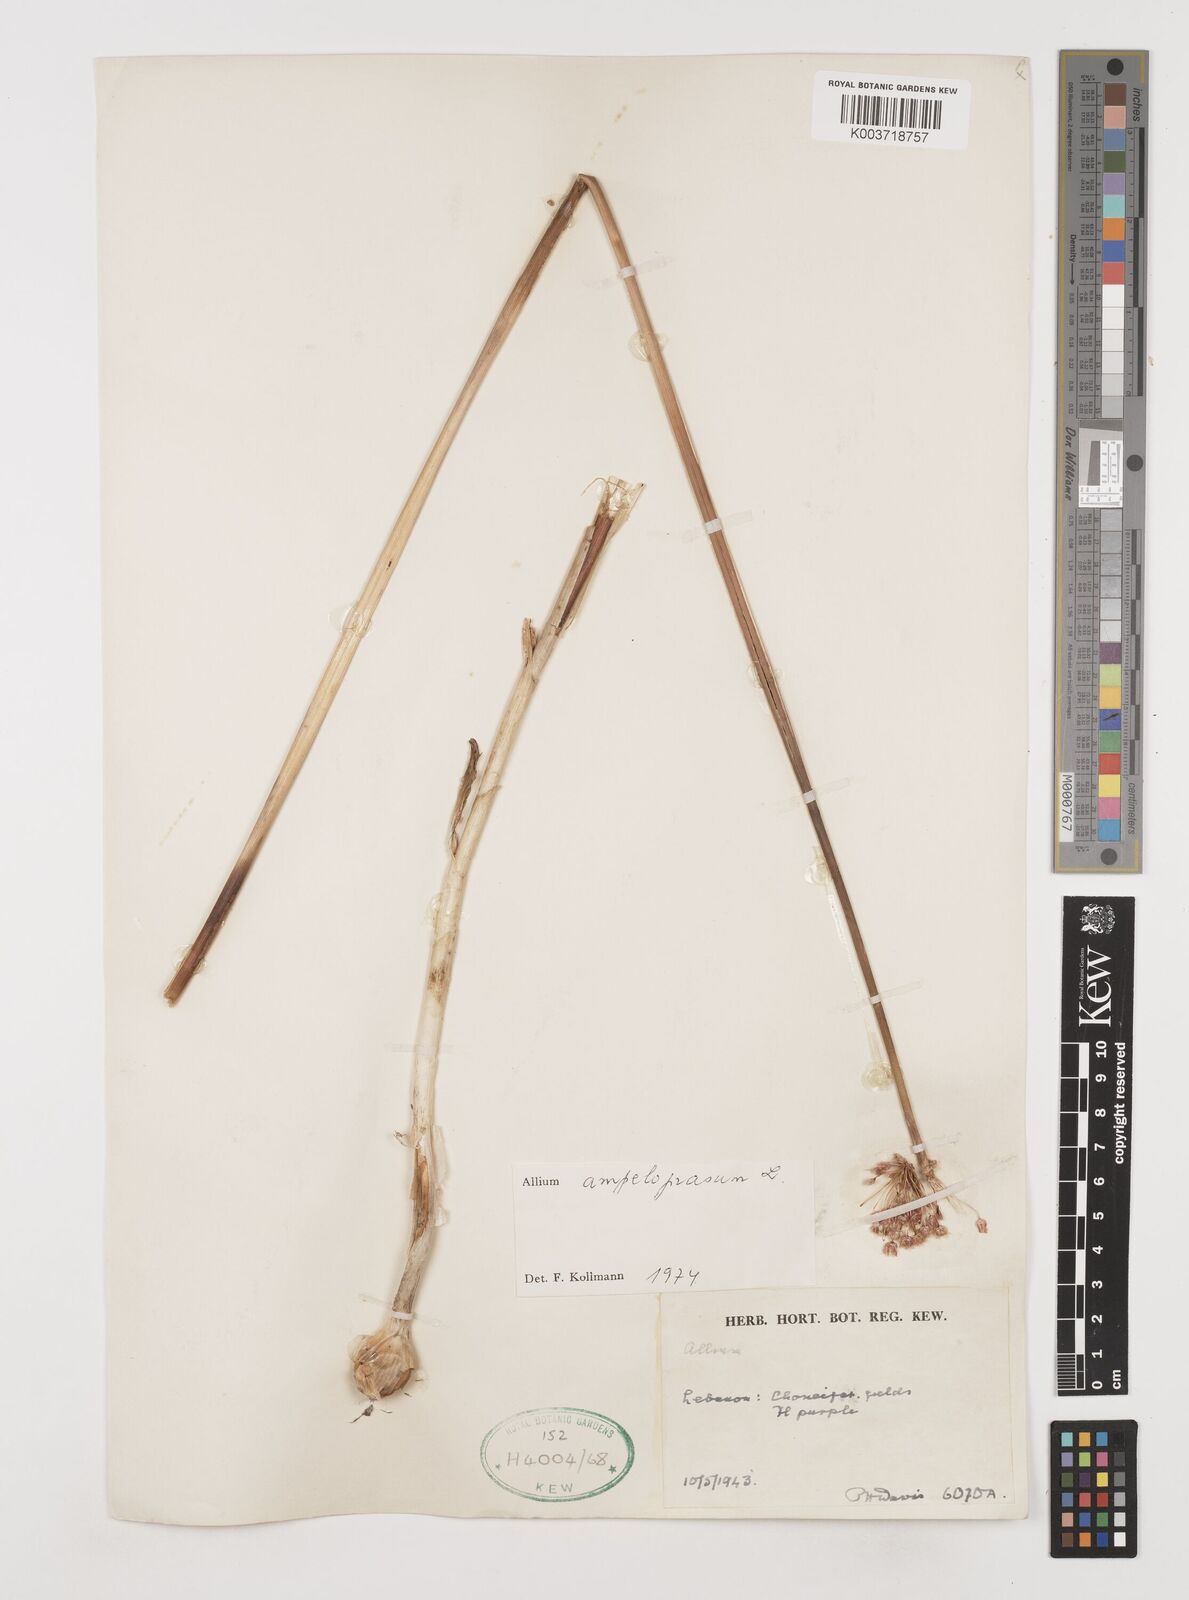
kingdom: Plantae
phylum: Tracheophyta
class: Liliopsida
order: Asparagales
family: Amaryllidaceae
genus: Allium
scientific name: Allium rotundum
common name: Sand leek
